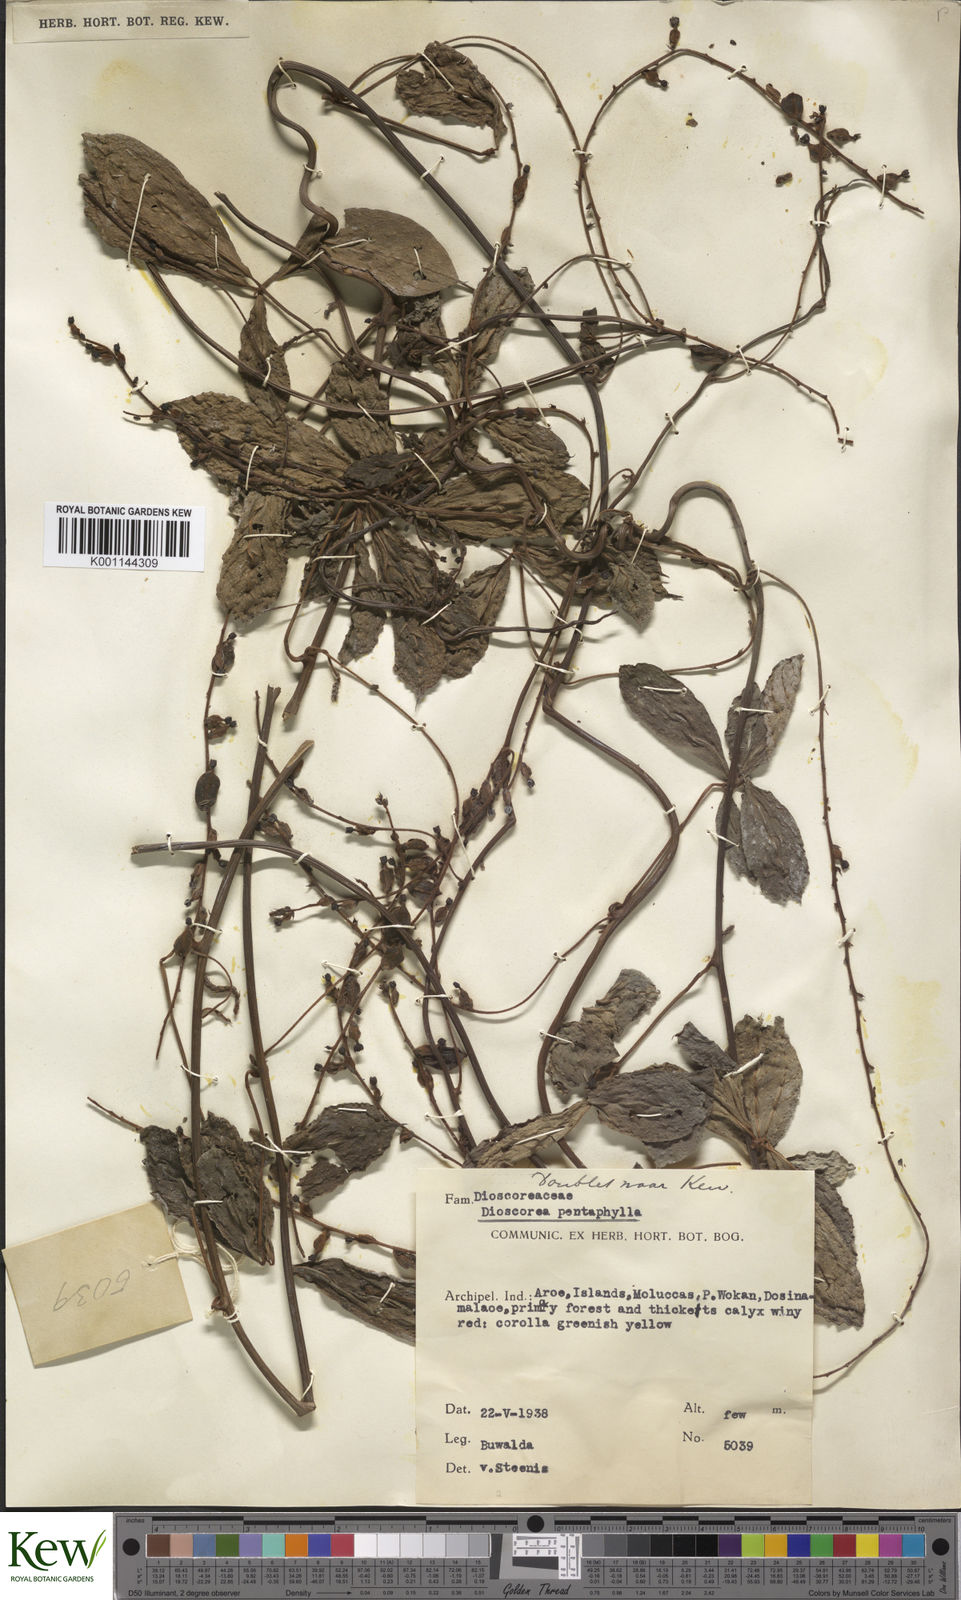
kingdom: Plantae
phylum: Tracheophyta
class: Liliopsida
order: Dioscoreales
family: Dioscoreaceae
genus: Dioscorea
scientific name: Dioscorea pentaphylla
